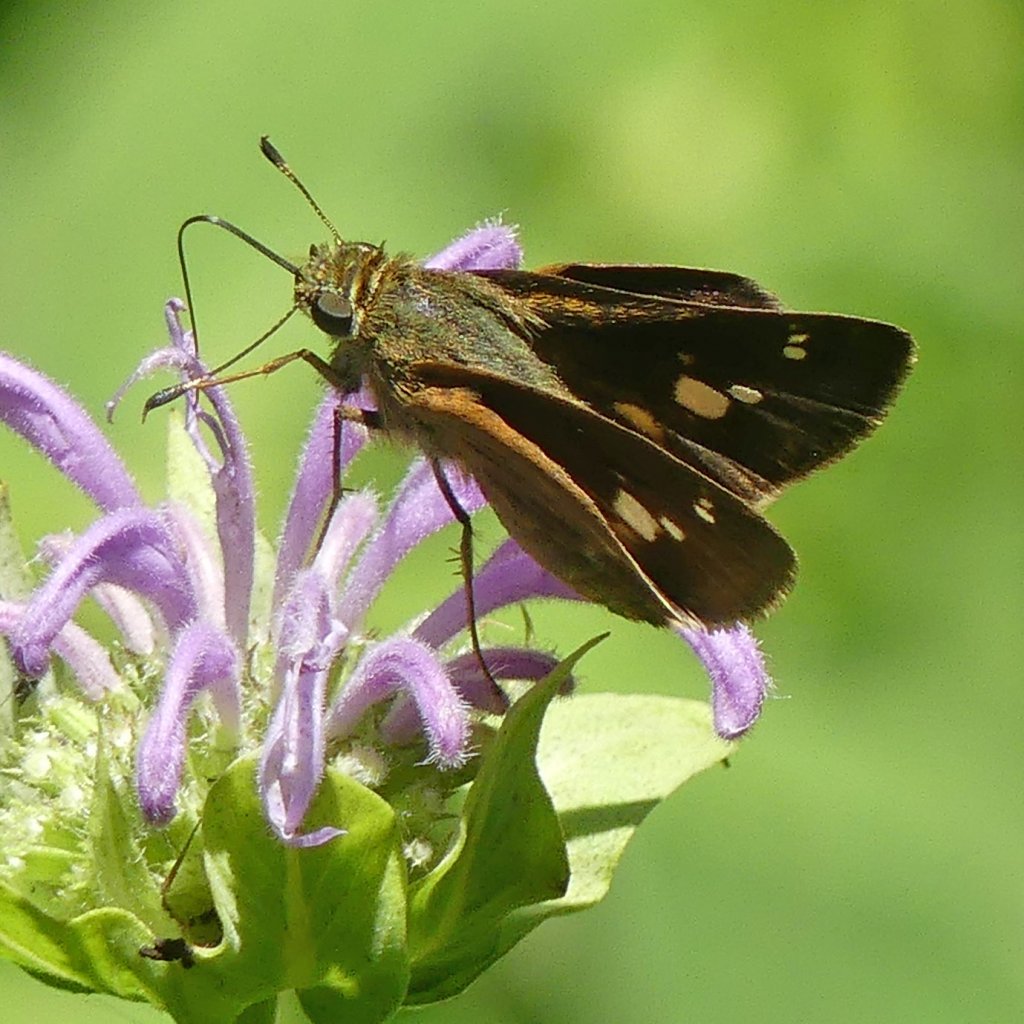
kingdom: Animalia
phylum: Arthropoda
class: Insecta
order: Lepidoptera
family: Hesperiidae
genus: Vernia
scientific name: Vernia verna
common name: Little Glassywing
